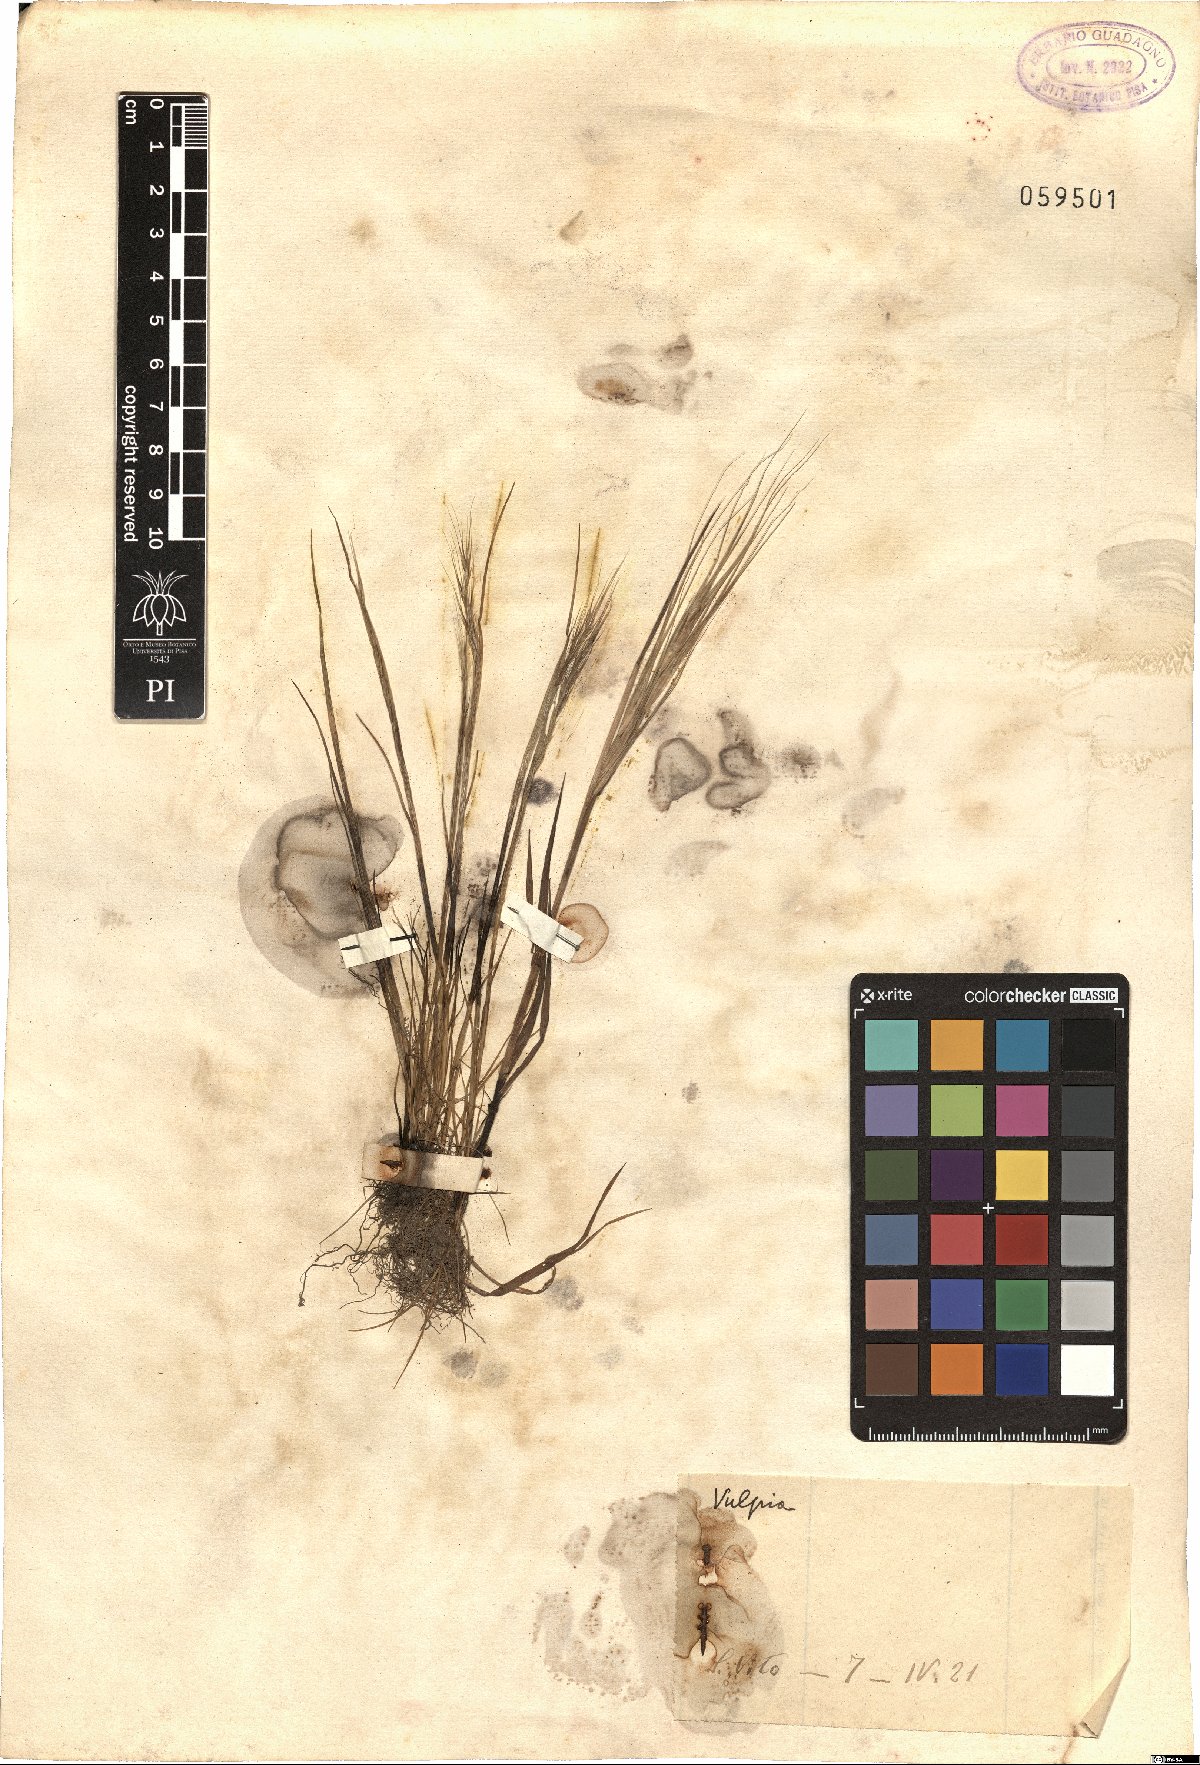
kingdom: Plantae
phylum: Tracheophyta
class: Liliopsida
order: Poales
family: Poaceae
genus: Festuca
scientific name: Festuca
